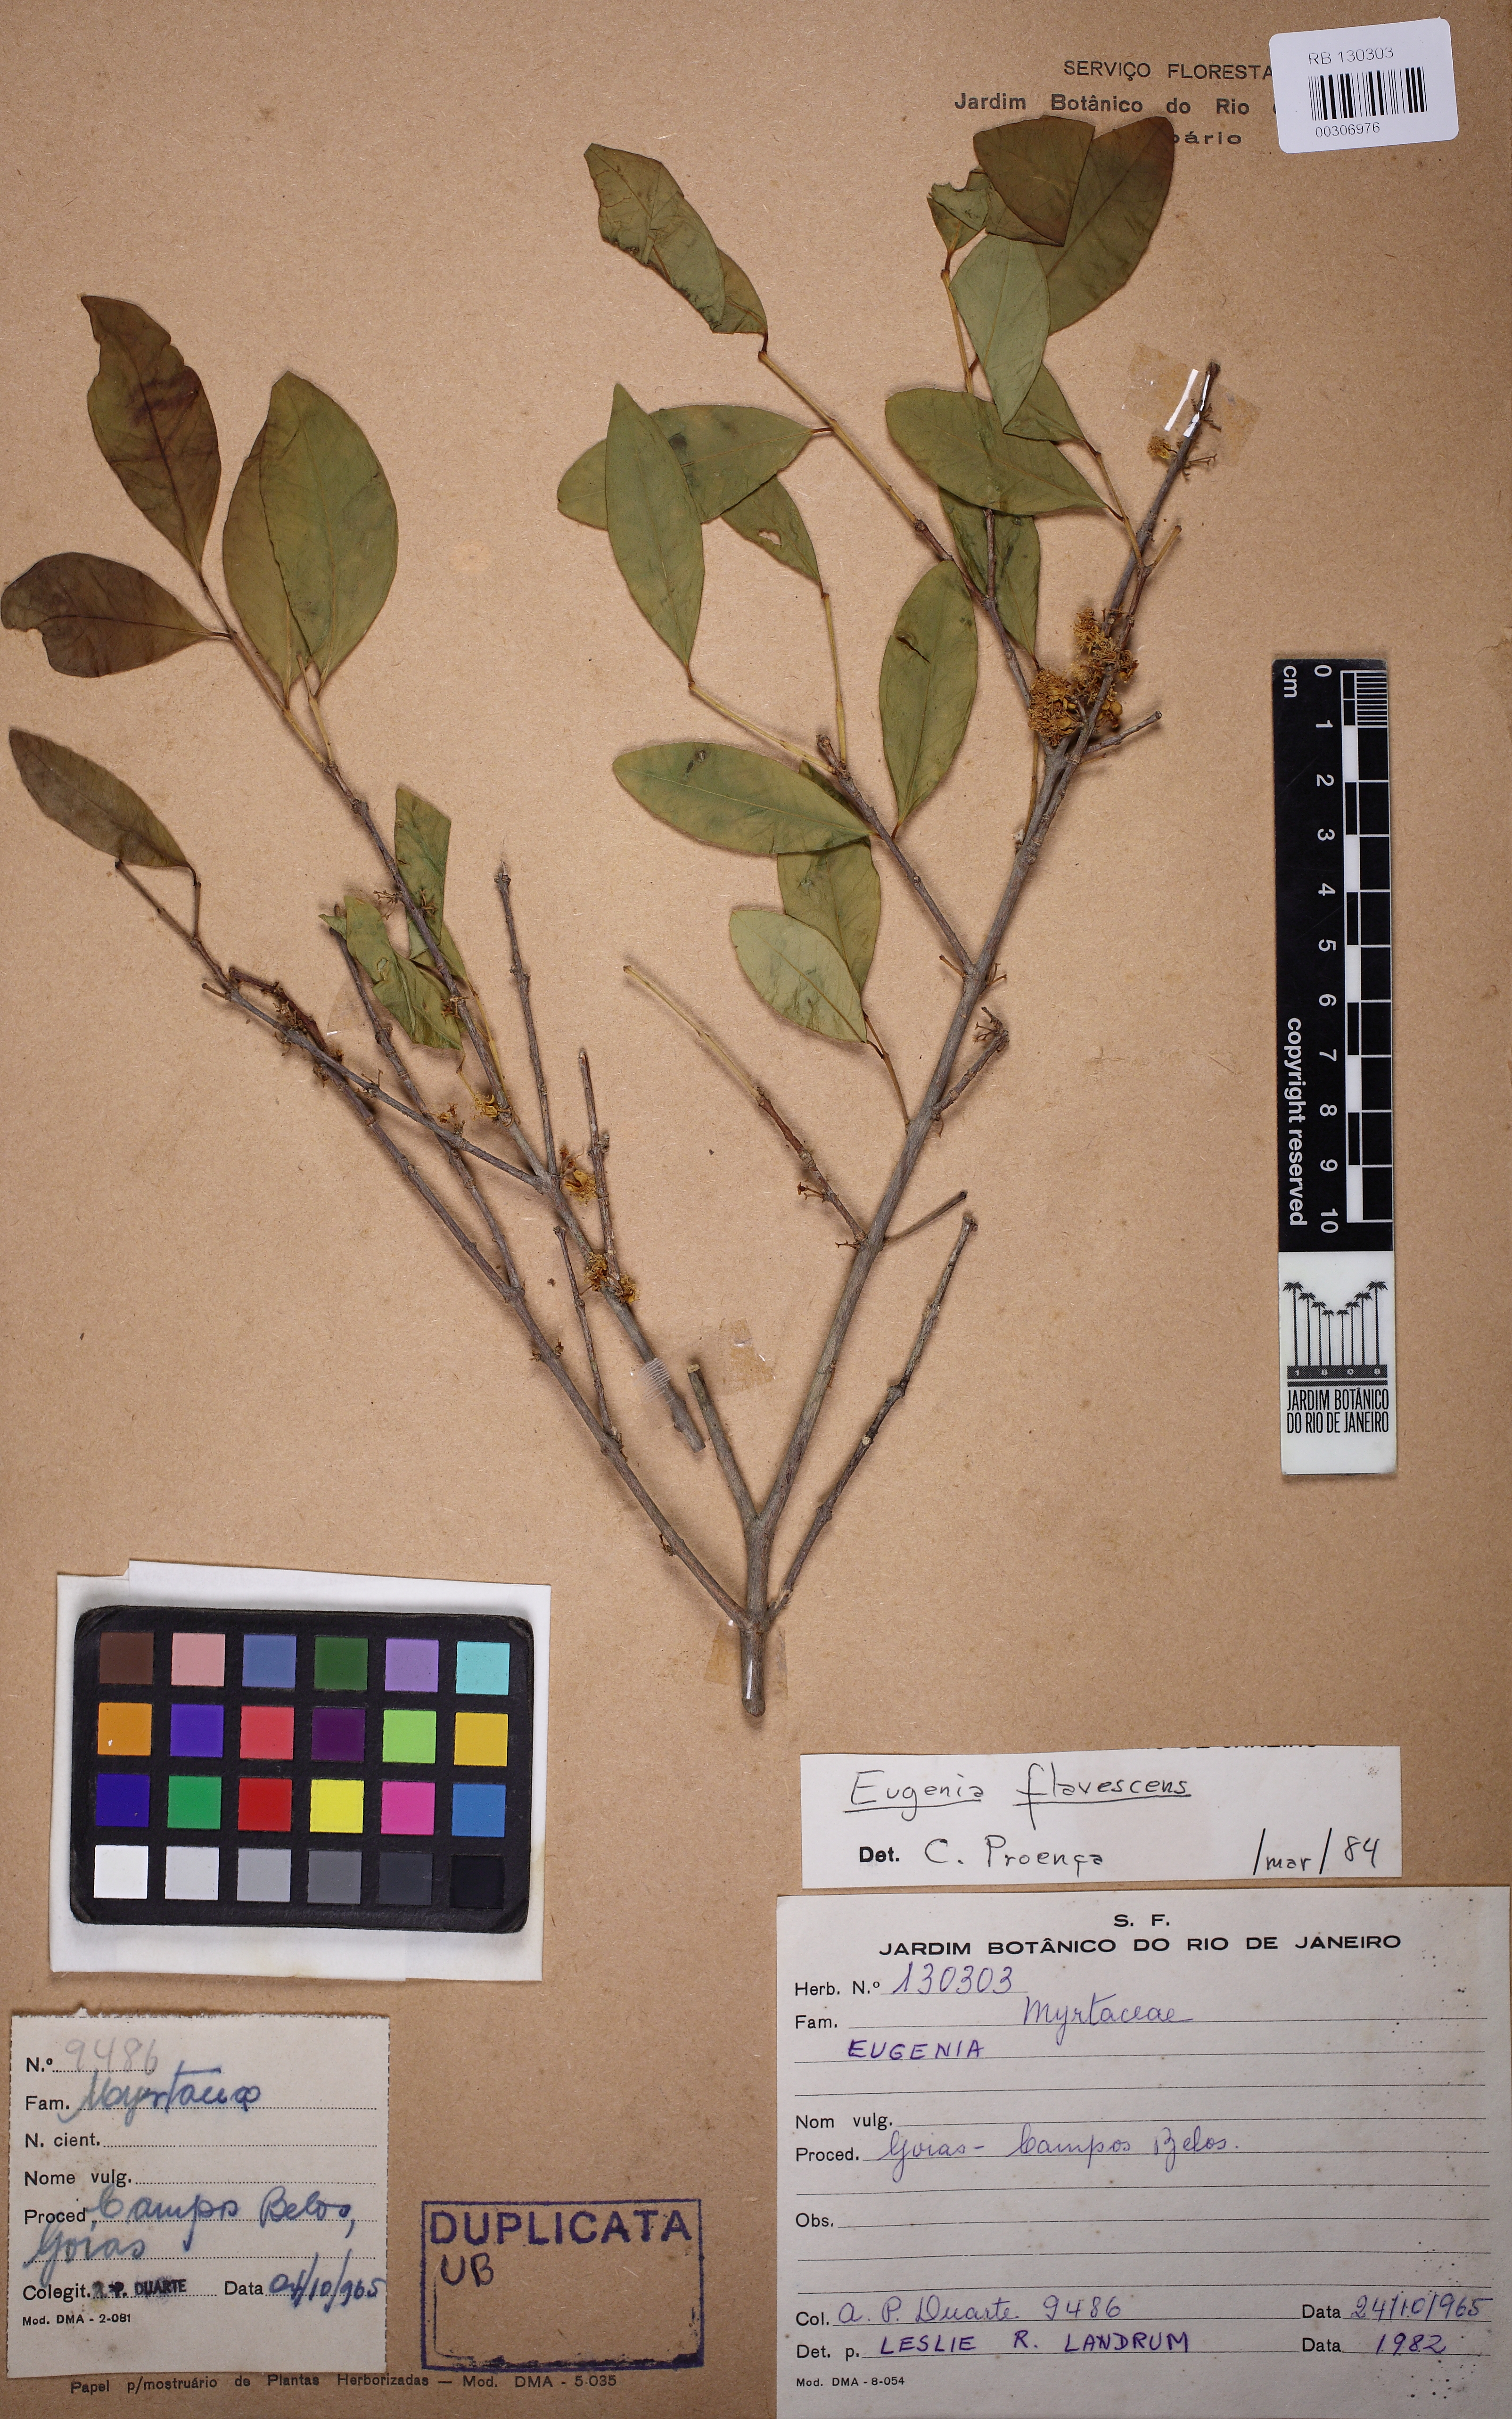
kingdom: Plantae
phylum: Tracheophyta
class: Magnoliopsida
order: Myrtales
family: Myrtaceae
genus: Eugenia
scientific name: Eugenia flavescens
